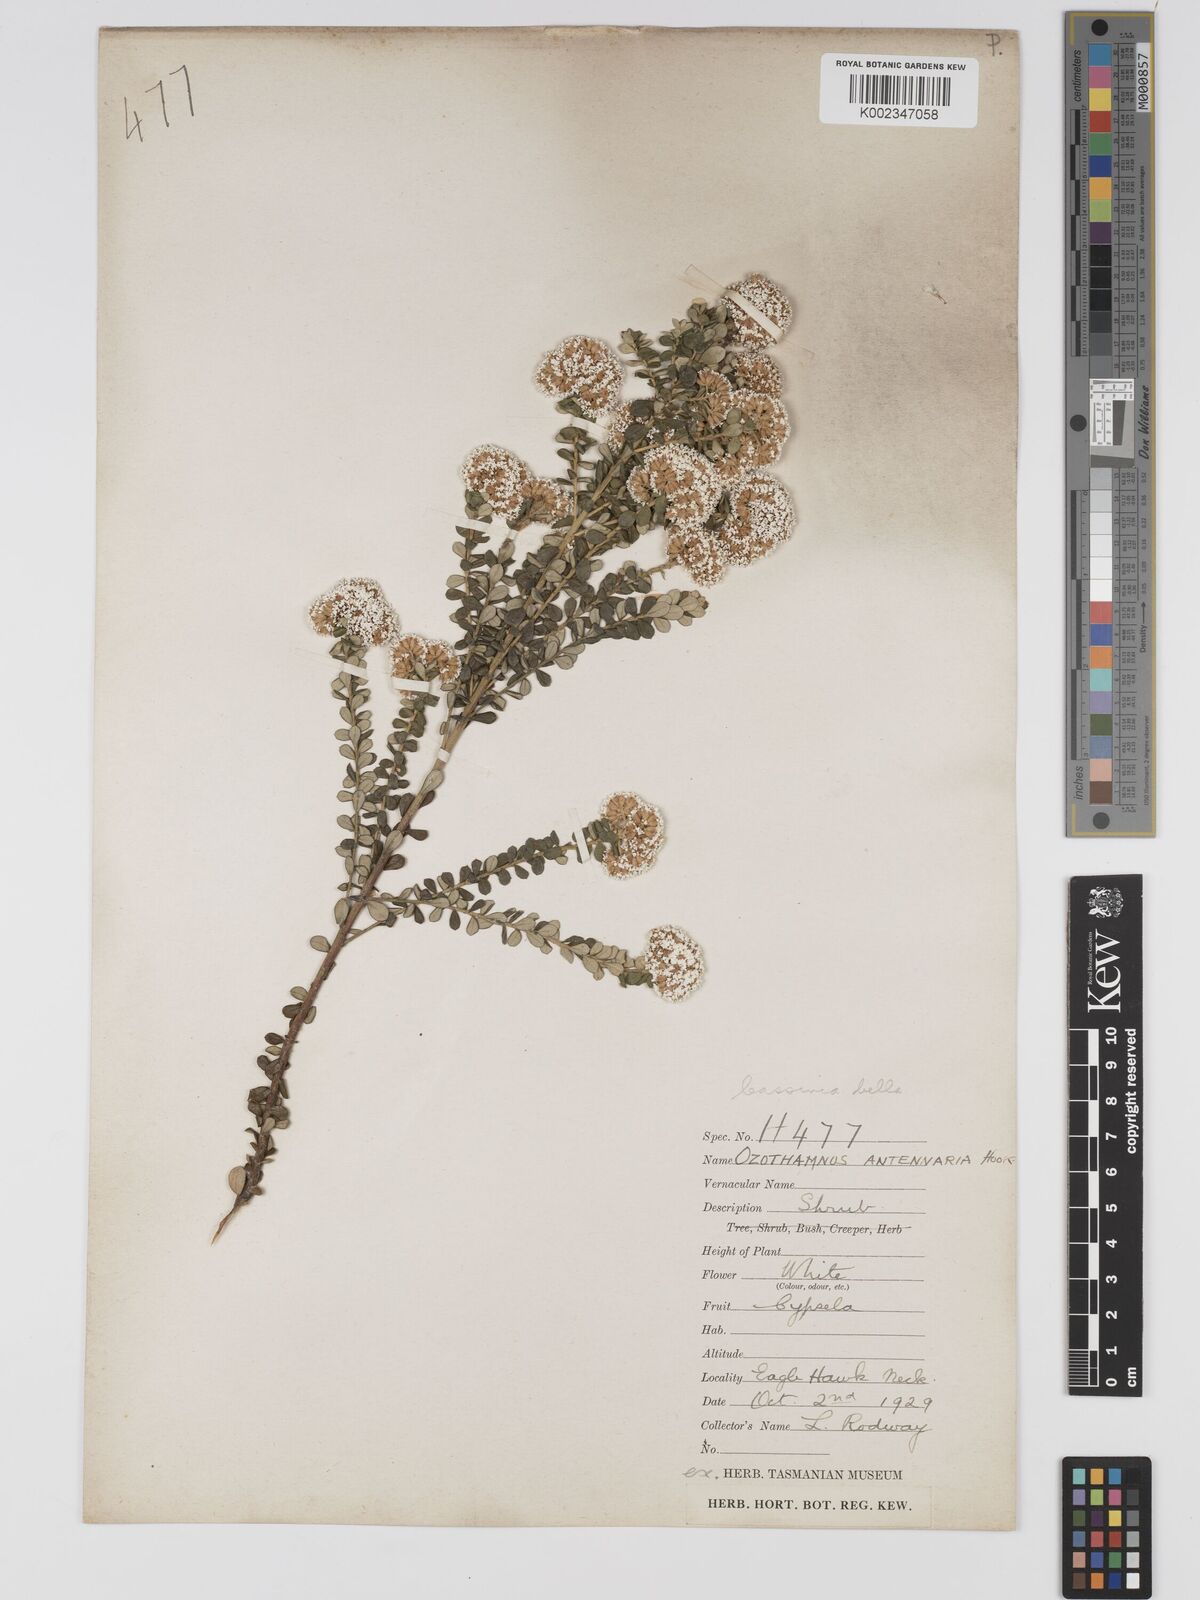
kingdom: Plantae
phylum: Tracheophyta
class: Magnoliopsida
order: Asterales
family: Asteraceae
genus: Odixia
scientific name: Odixia angusta
